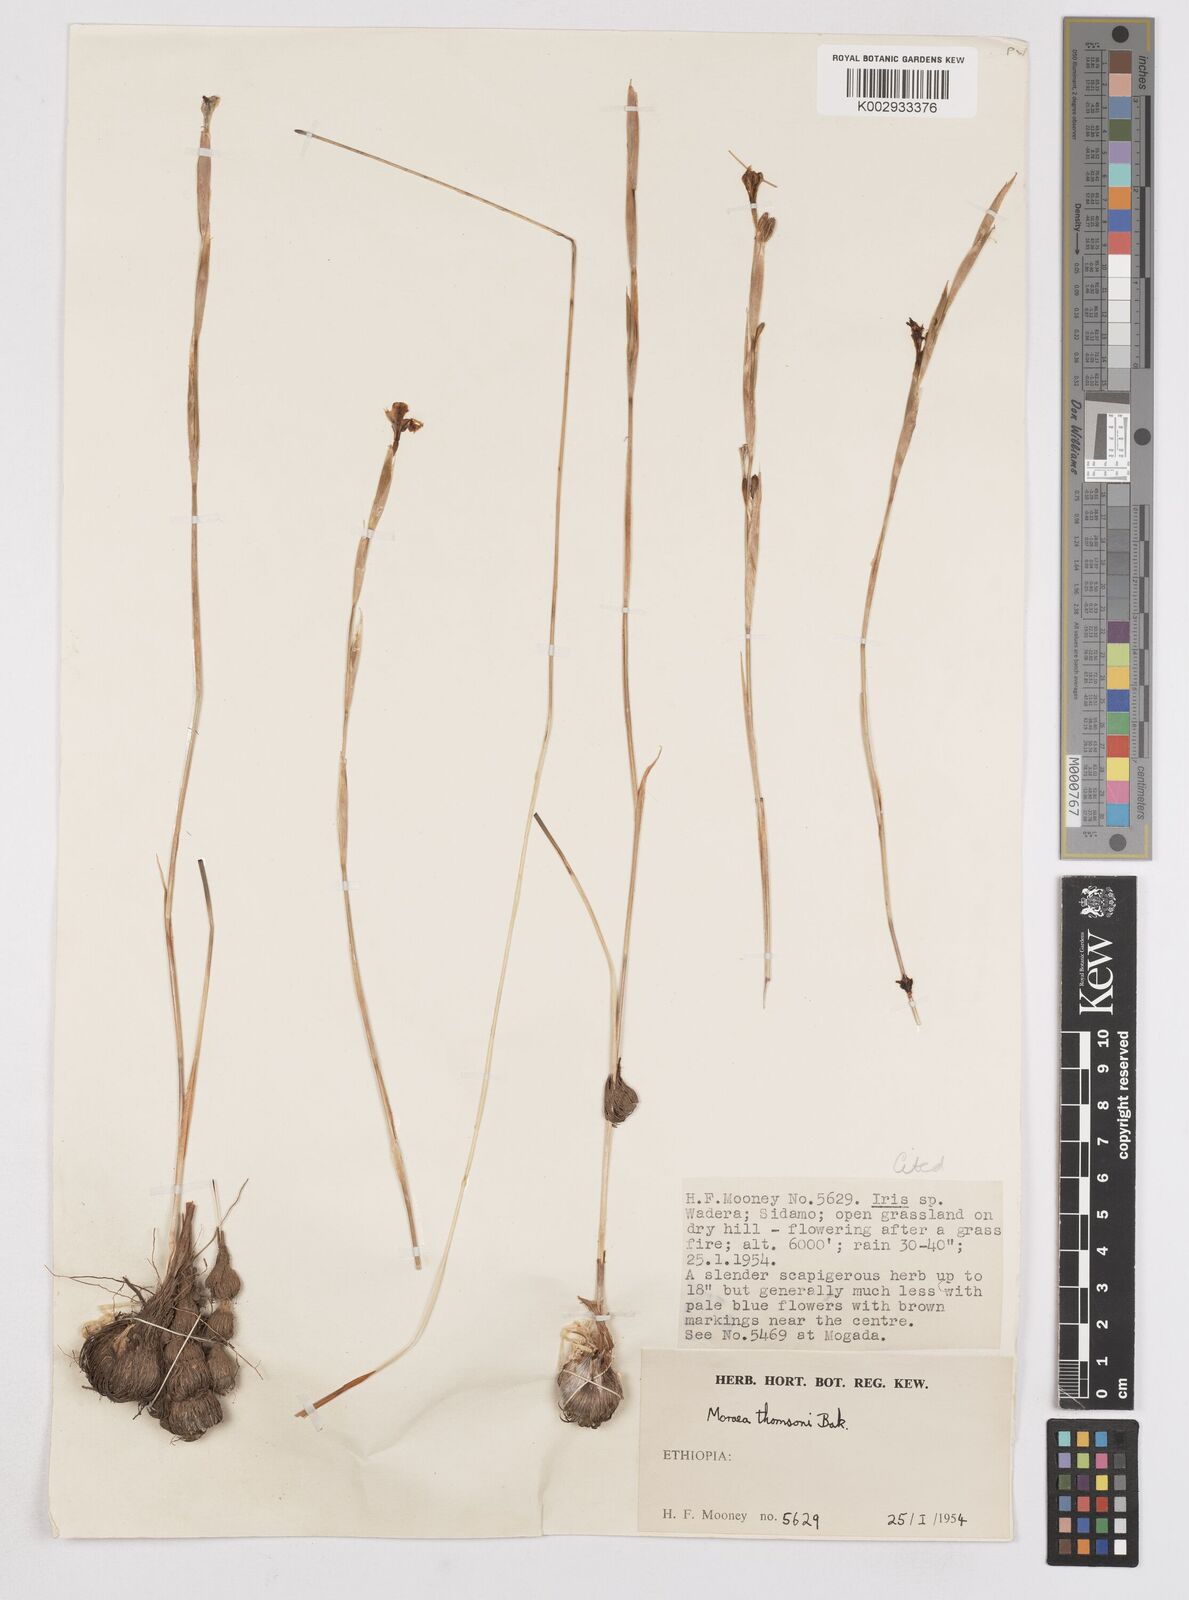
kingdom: Plantae
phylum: Tracheophyta
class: Liliopsida
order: Asparagales
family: Iridaceae
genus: Moraea
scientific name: Moraea thomsonii
